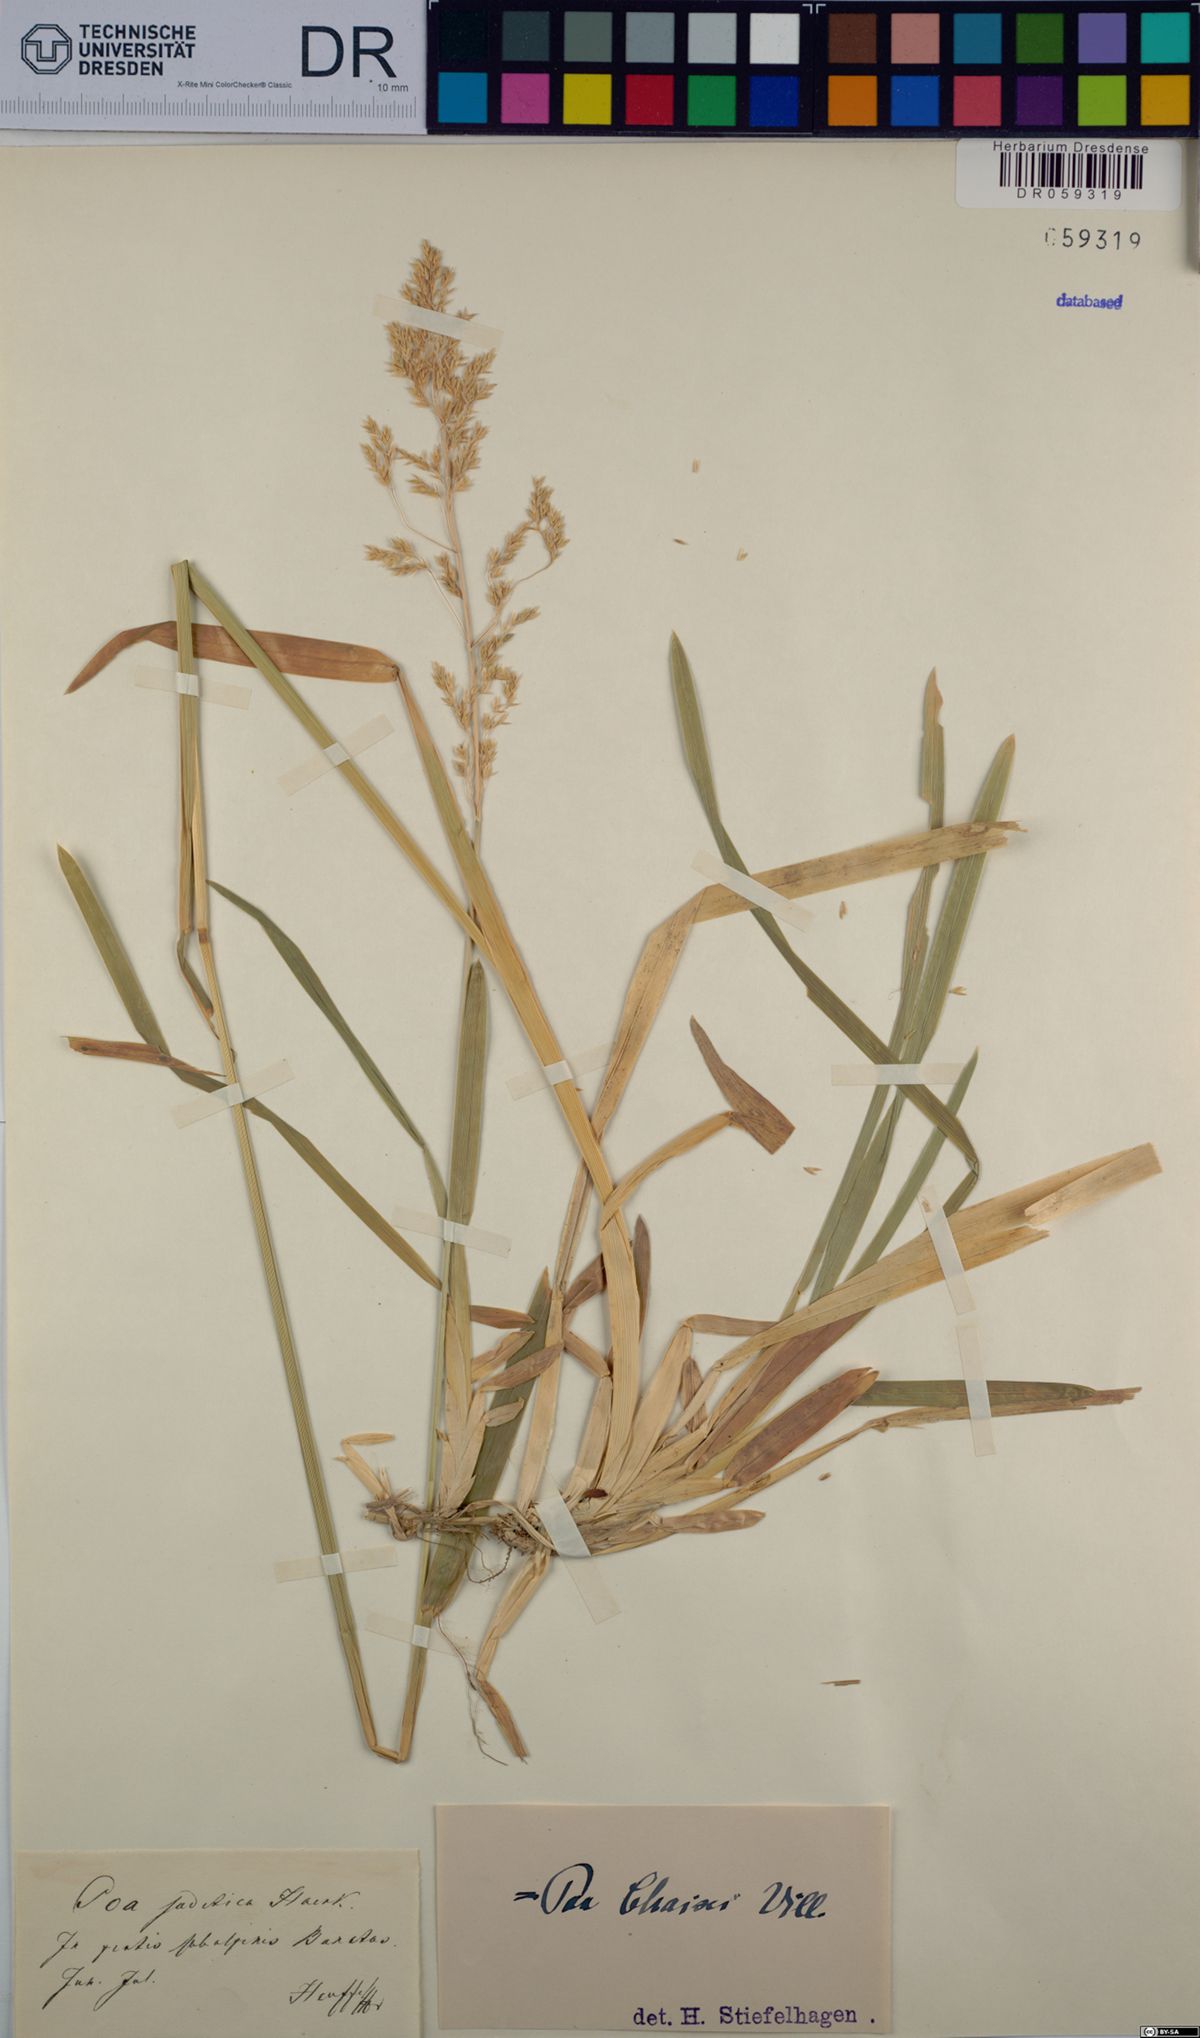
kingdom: Plantae
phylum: Tracheophyta
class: Liliopsida
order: Poales
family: Poaceae
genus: Poa
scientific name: Poa chaixii
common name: Broad-leaved meadow-grass
